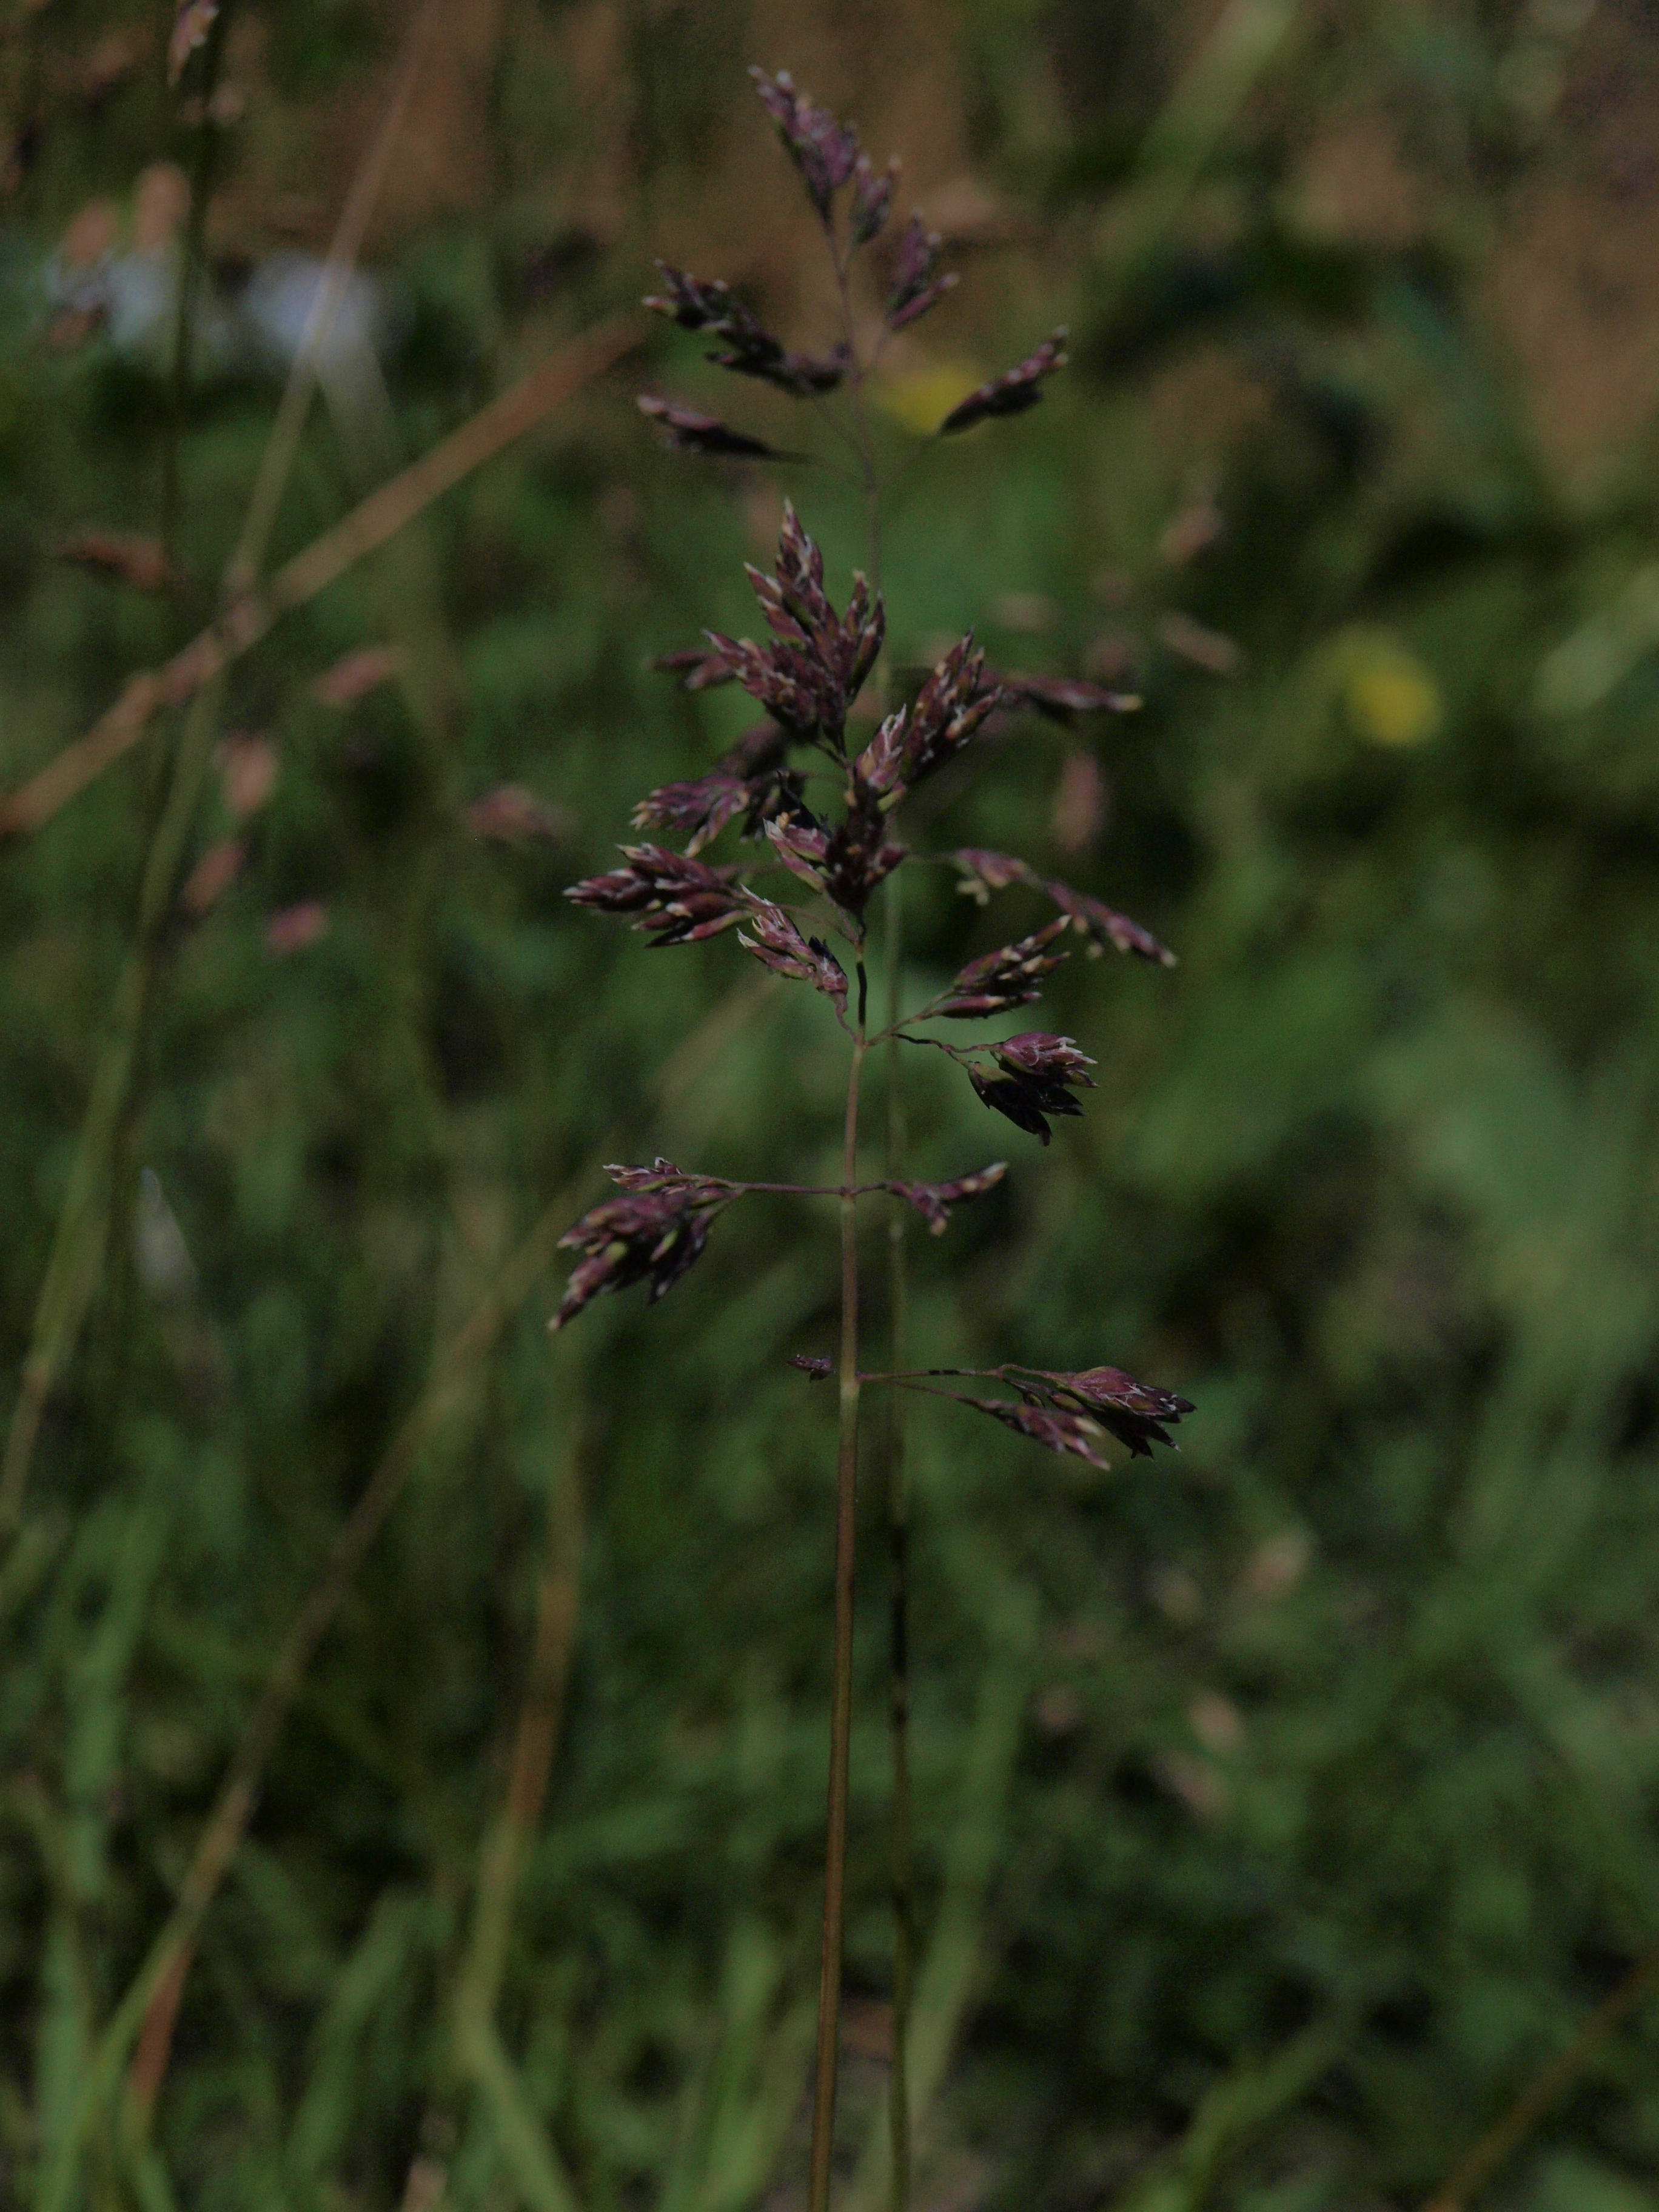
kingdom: Plantae
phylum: Tracheophyta
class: Liliopsida
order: Poales
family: Poaceae
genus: Poa
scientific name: Poa pratensis
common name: Kentucky bluegrass
